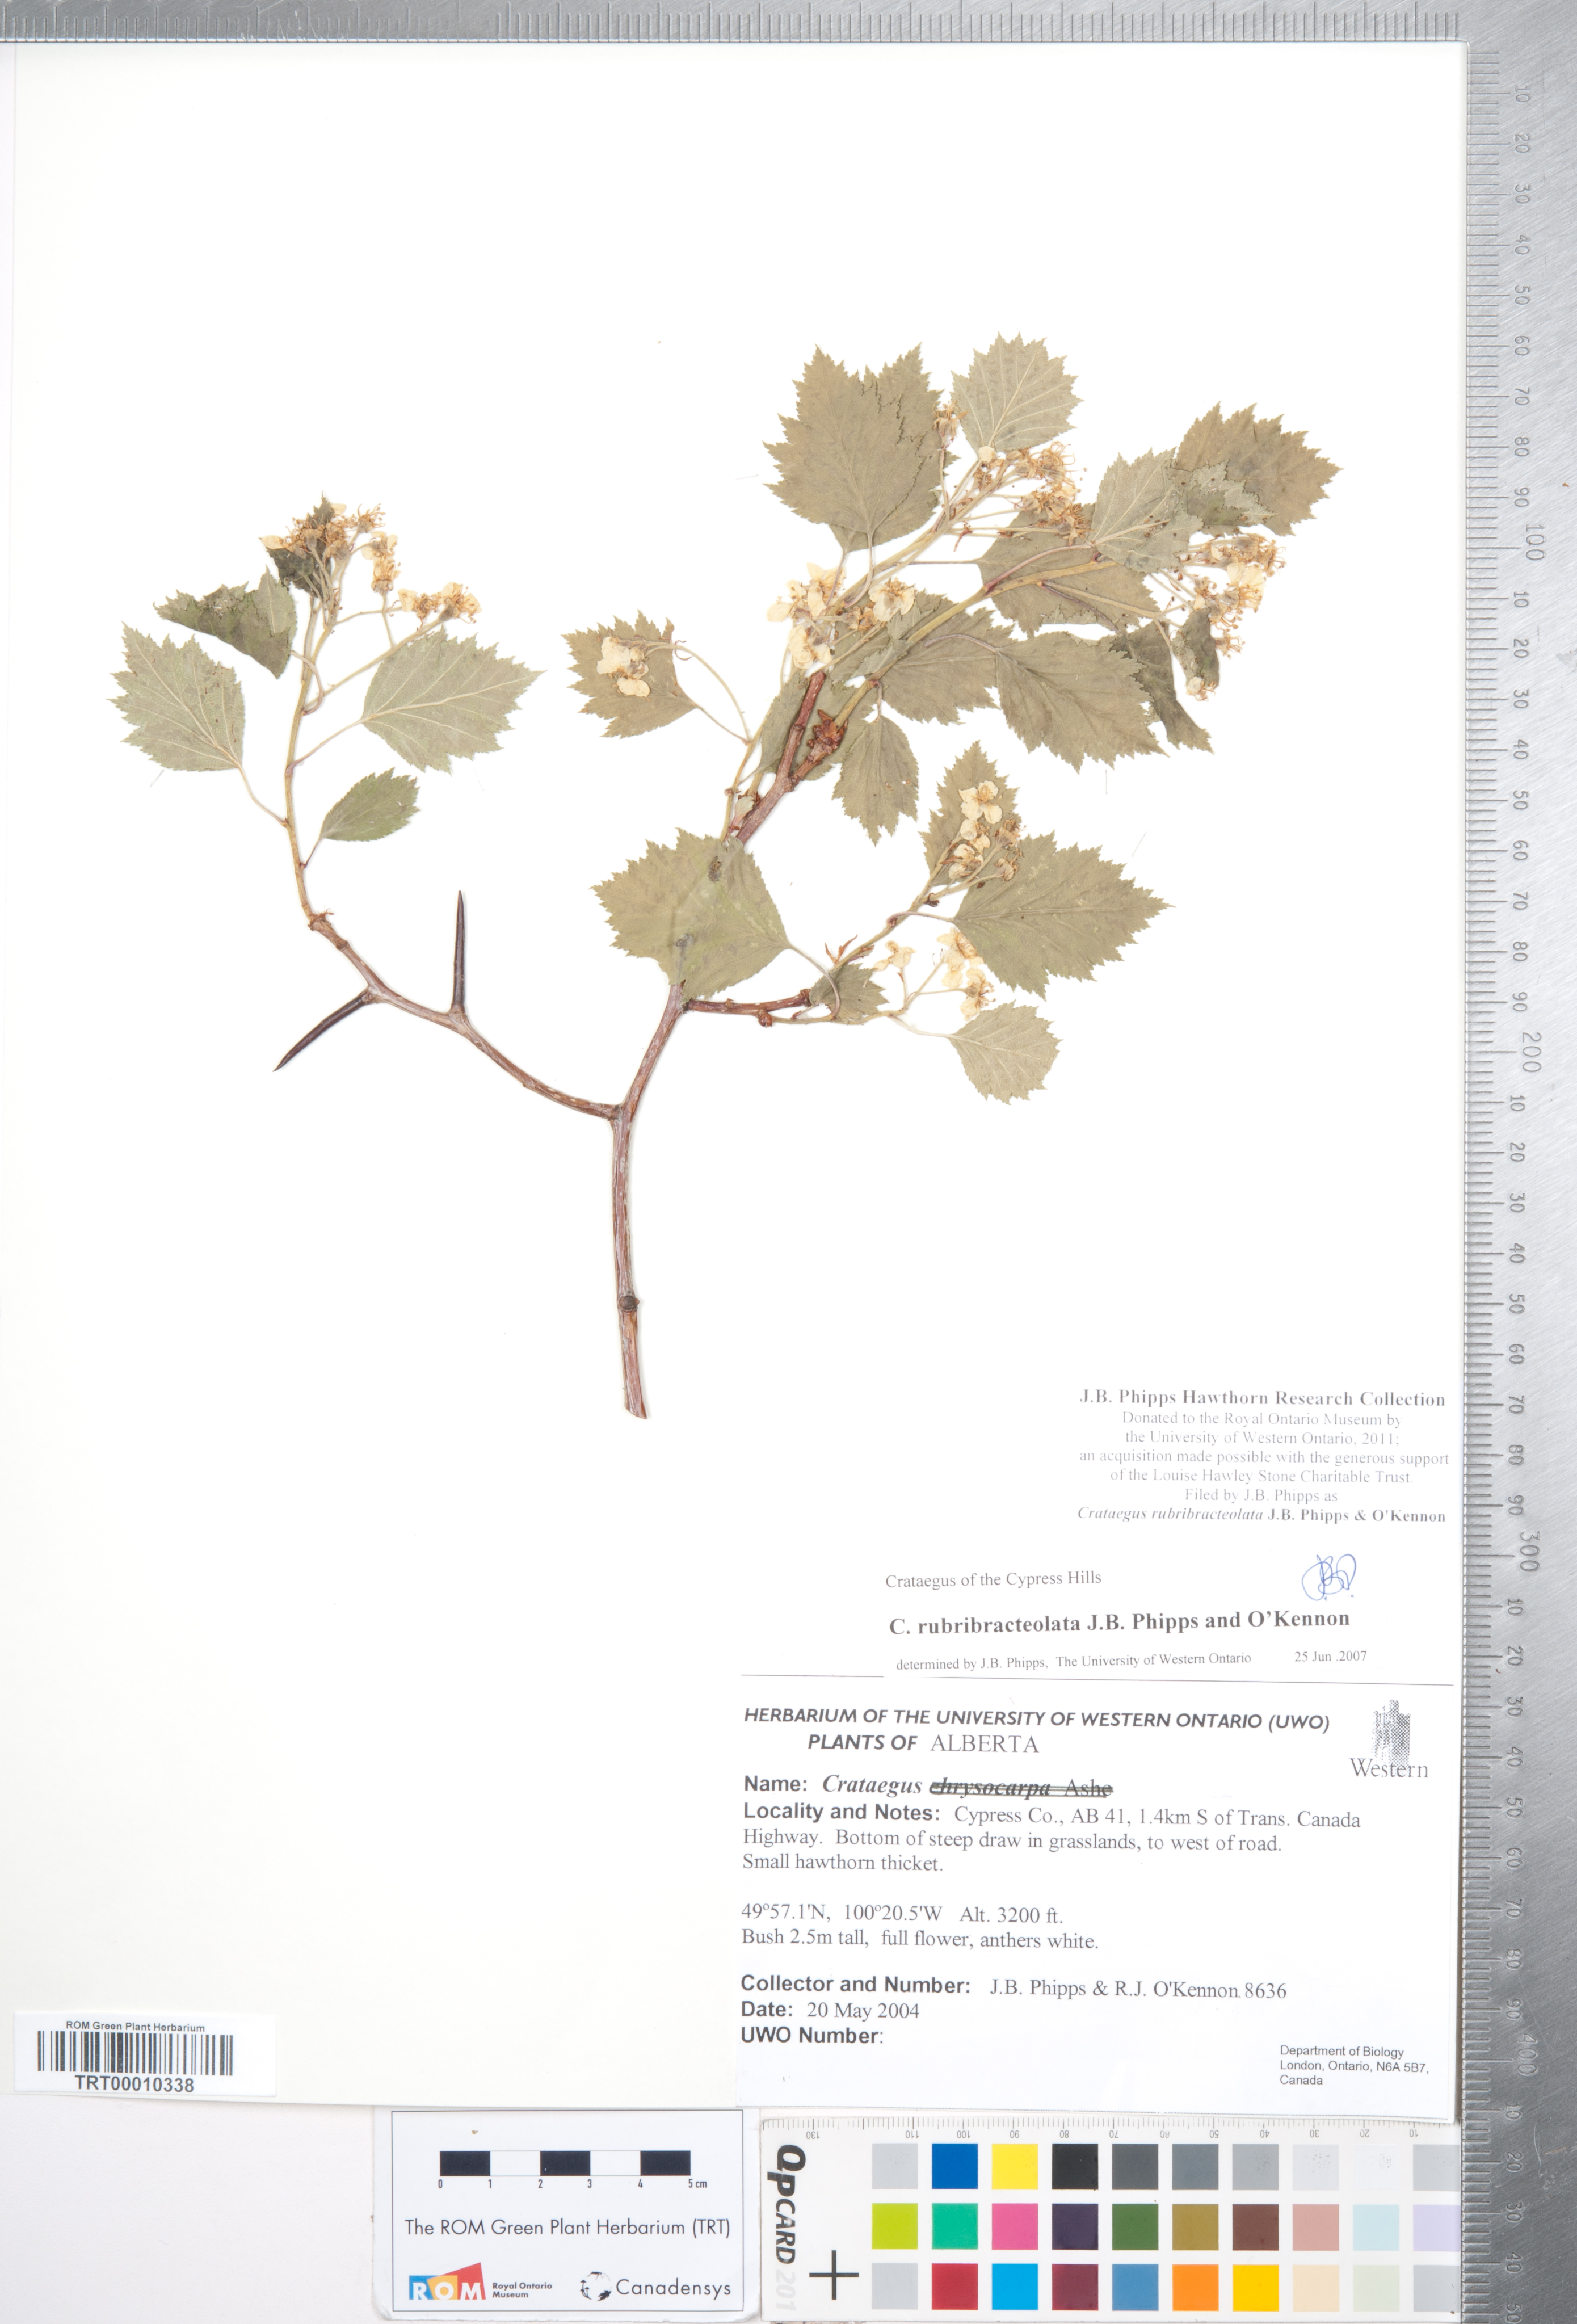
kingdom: Plantae
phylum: Tracheophyta
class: Magnoliopsida
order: Rosales
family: Rosaceae
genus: Crataegus
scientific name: Crataegus rubribracteolata
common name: Red bracteole hawthorn
